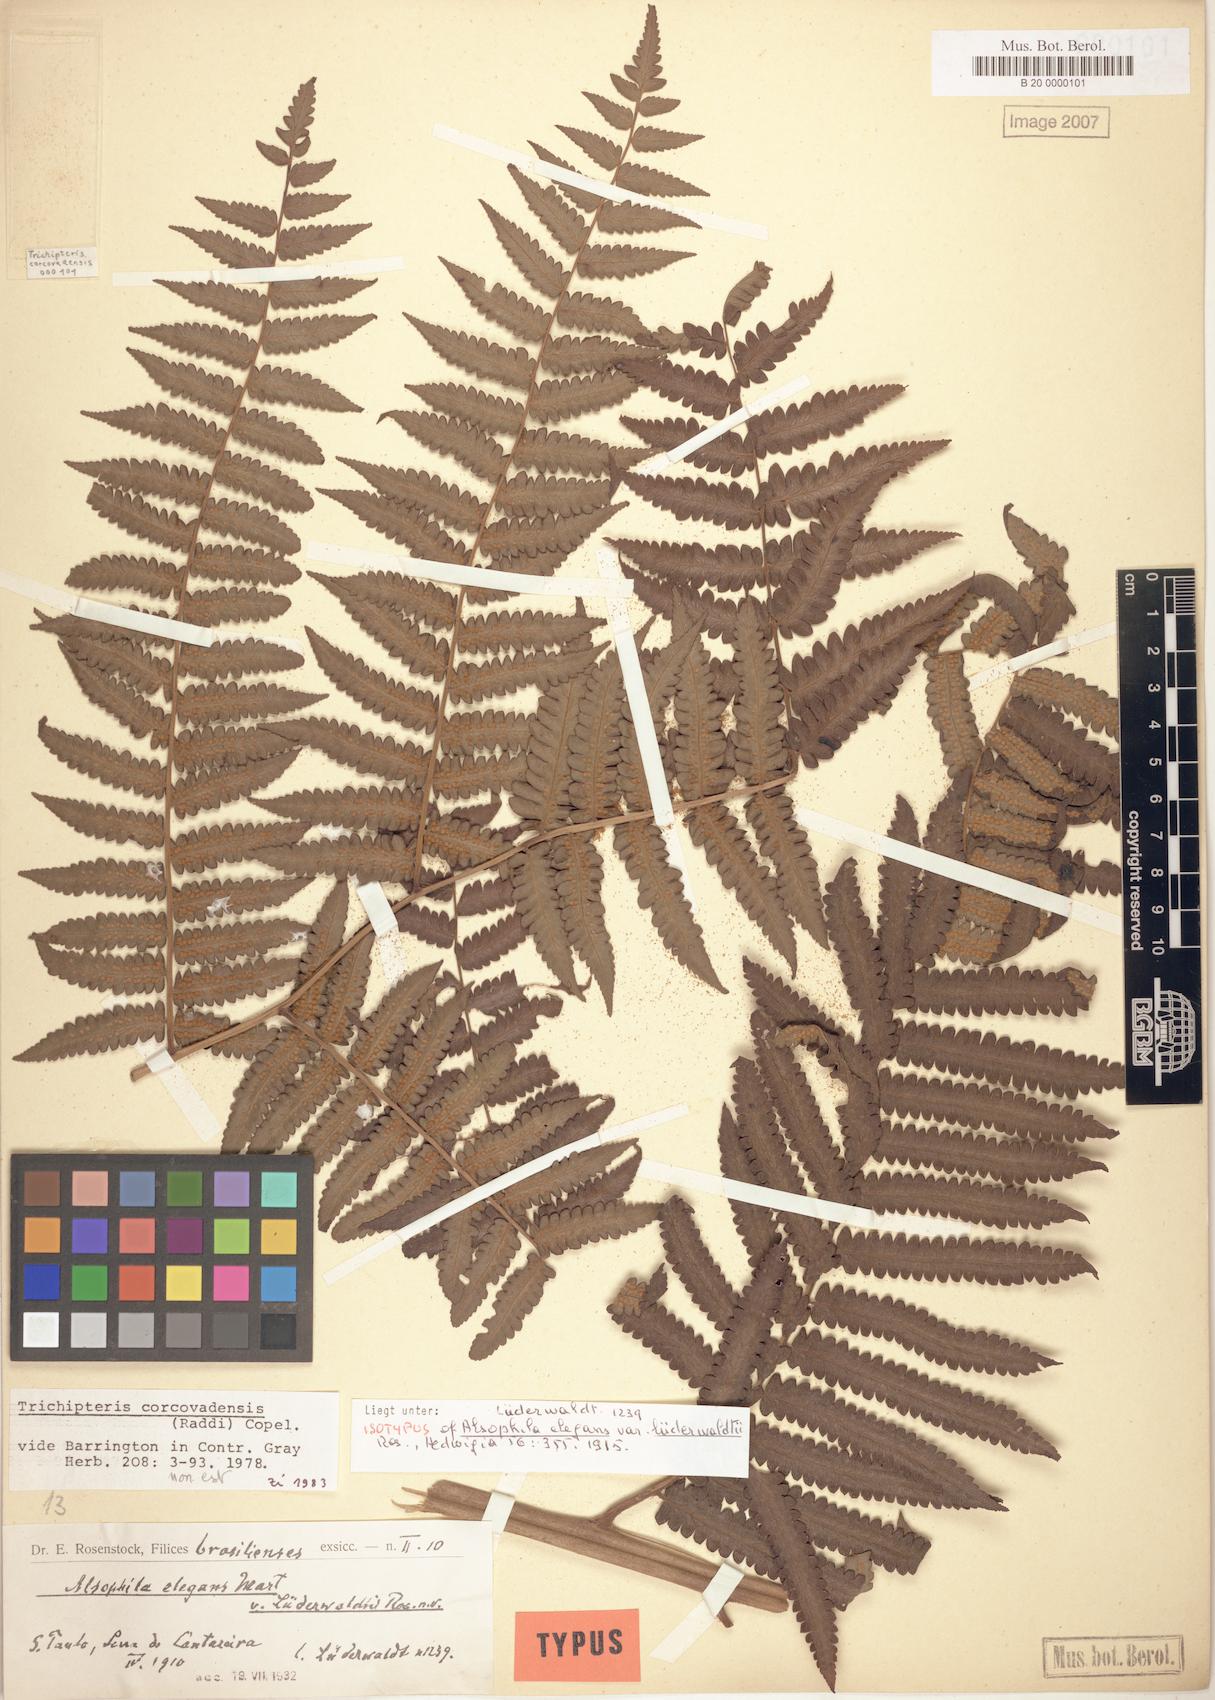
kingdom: Plantae
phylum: Tracheophyta
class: Polypodiopsida
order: Cyatheales
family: Cyatheaceae
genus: Cyathea
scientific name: Cyathea corcovadensis
